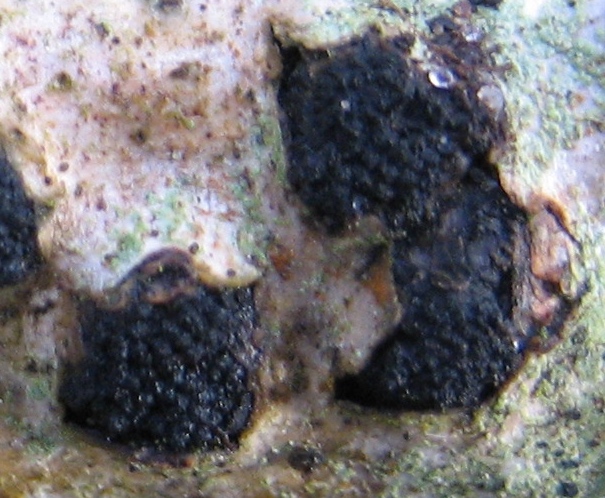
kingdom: Fungi
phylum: Ascomycota
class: Sordariomycetes
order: Xylariales
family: Diatrypaceae
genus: Eutypella
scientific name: Eutypella sorbi
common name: rønne-kulskorpe
